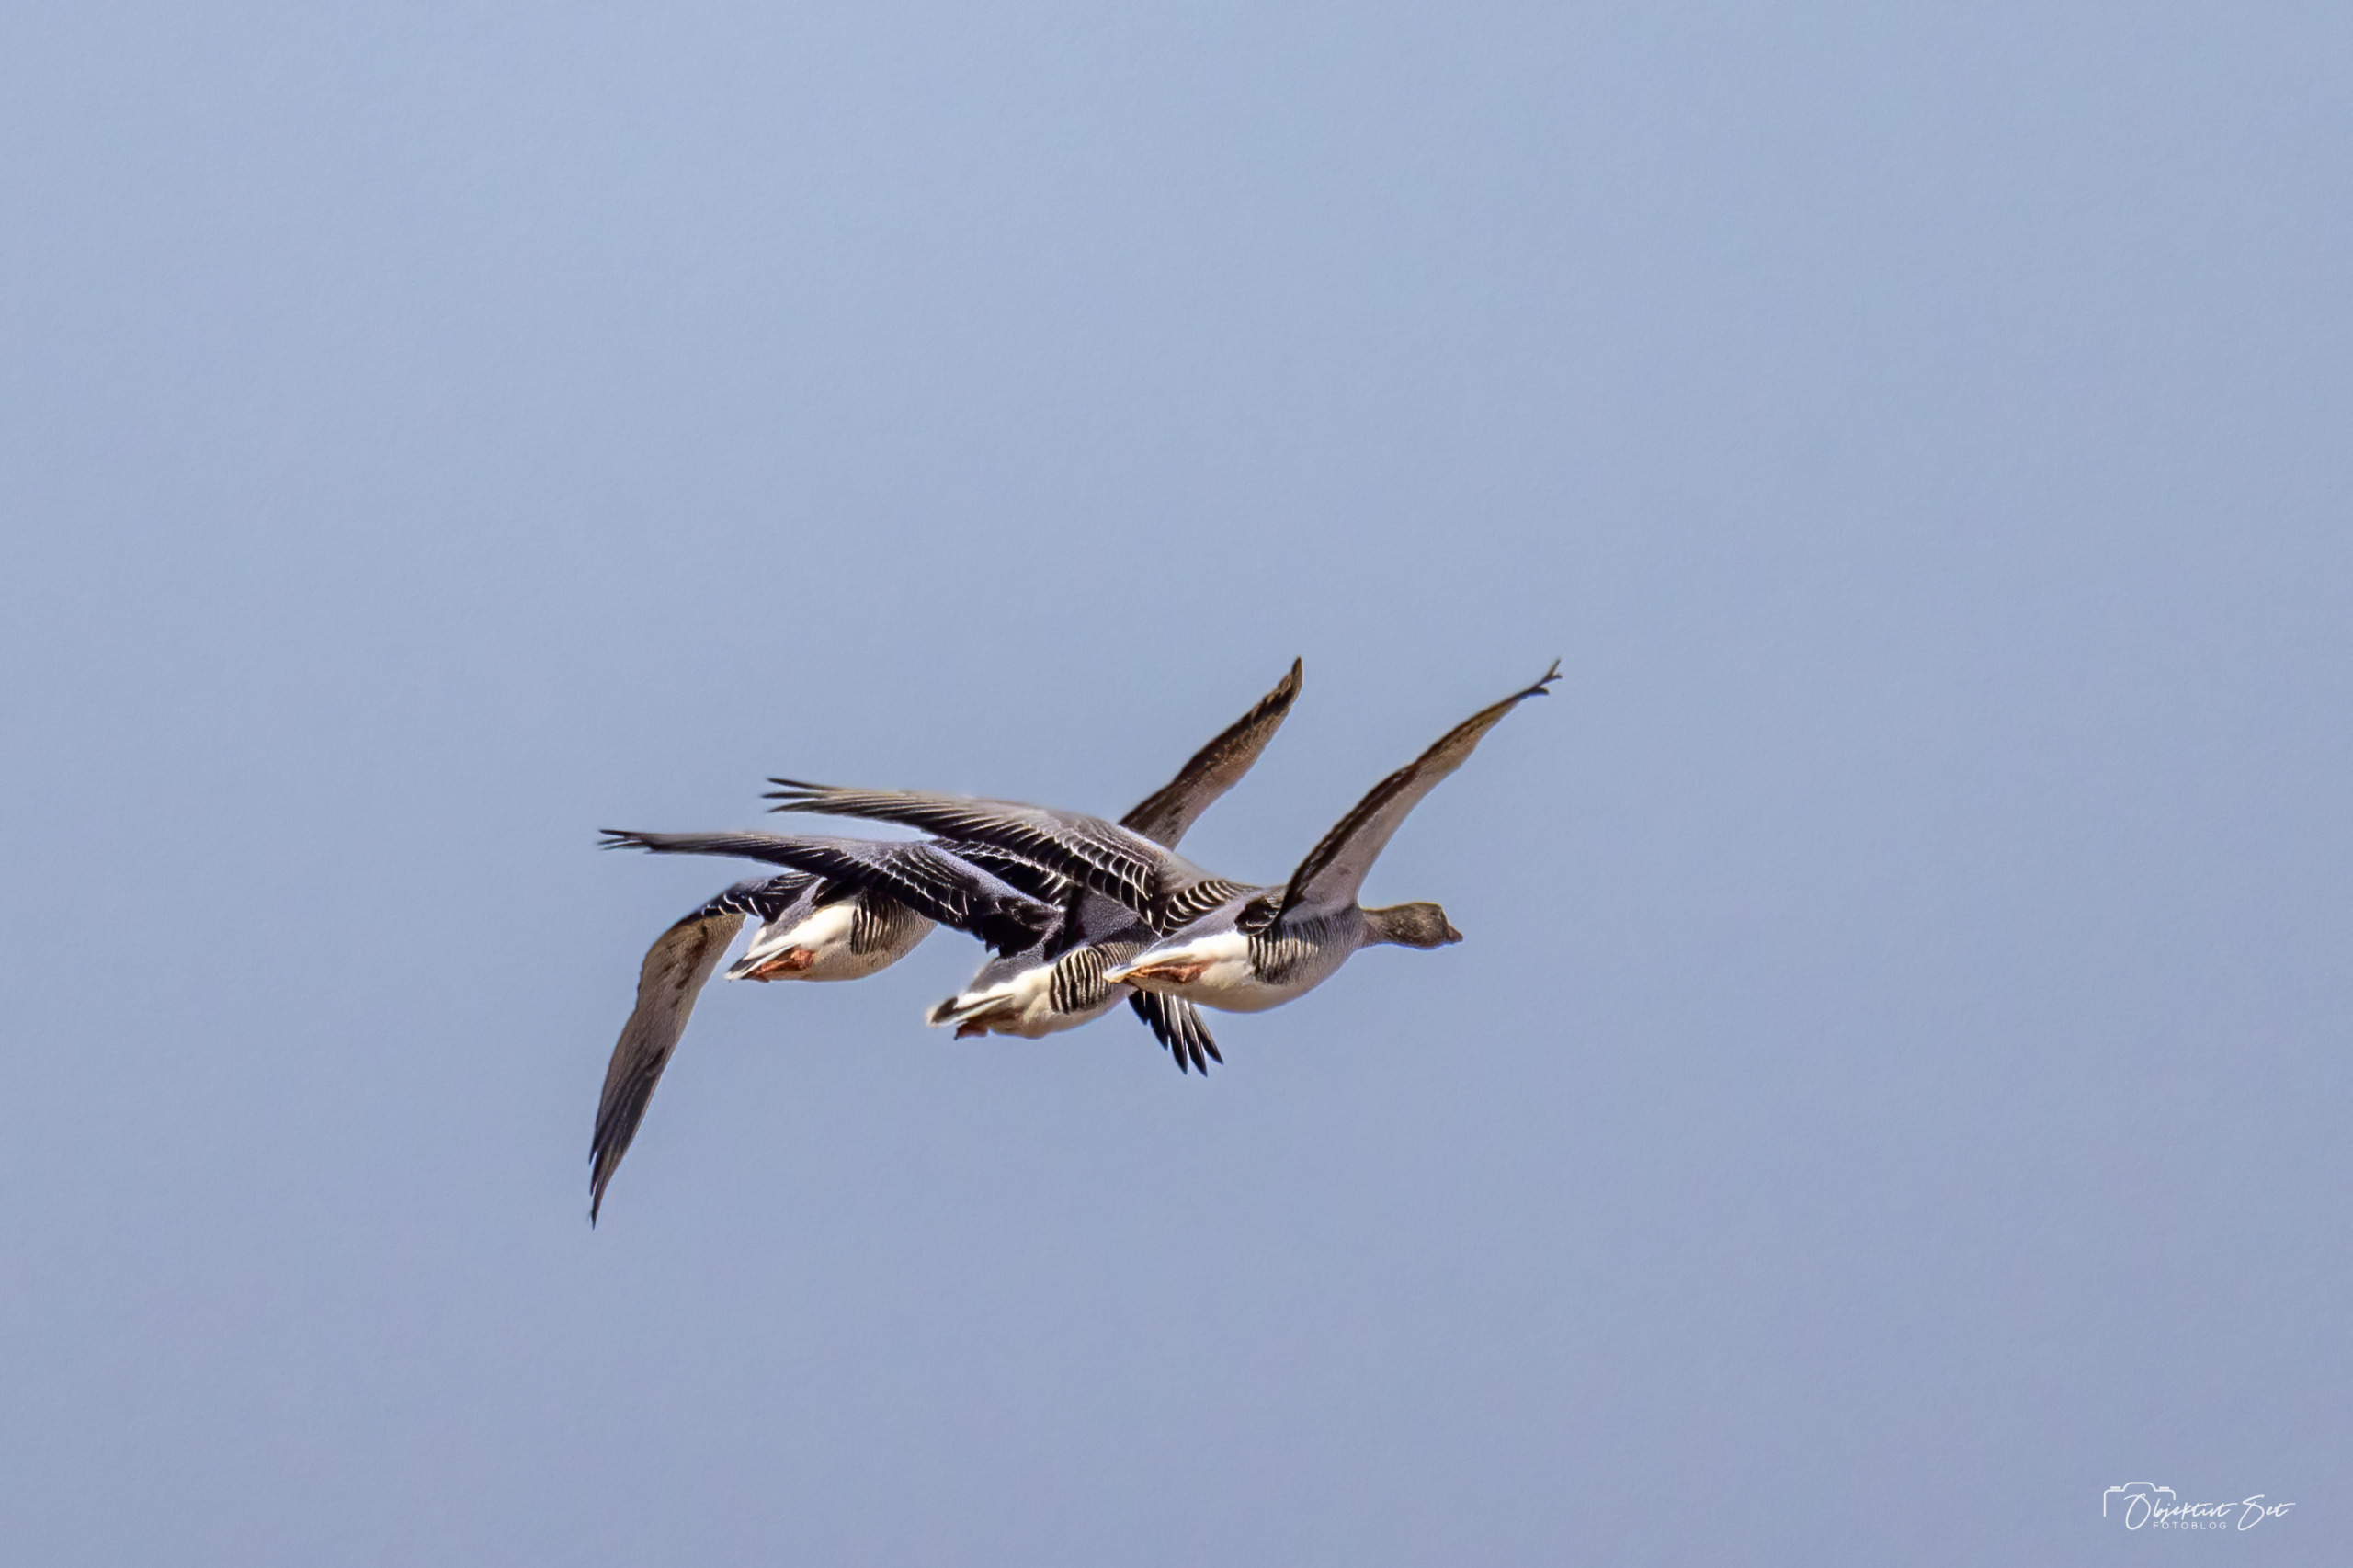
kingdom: Animalia
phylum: Chordata
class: Aves
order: Anseriformes
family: Anatidae
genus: Anser
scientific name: Anser anser
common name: Grågås
